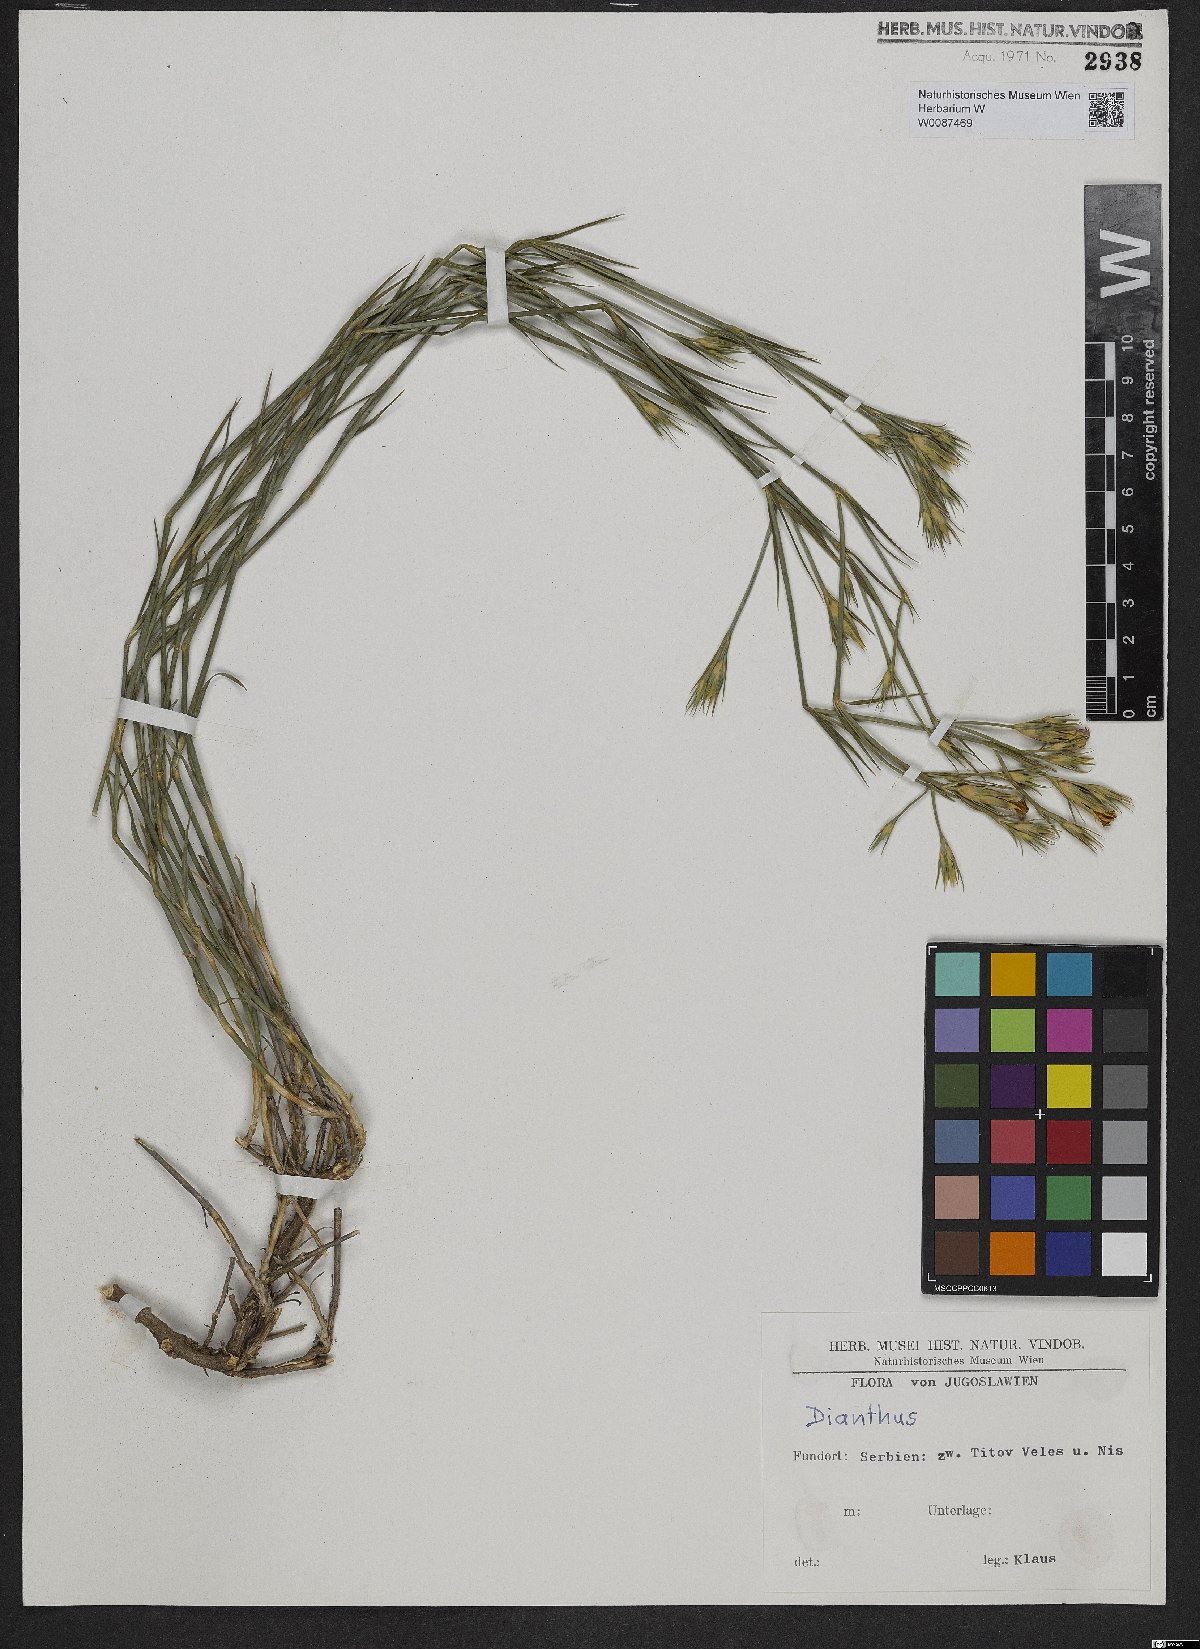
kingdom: Plantae
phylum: Tracheophyta
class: Magnoliopsida
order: Caryophyllales
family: Caryophyllaceae
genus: Dianthus
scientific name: Dianthus
